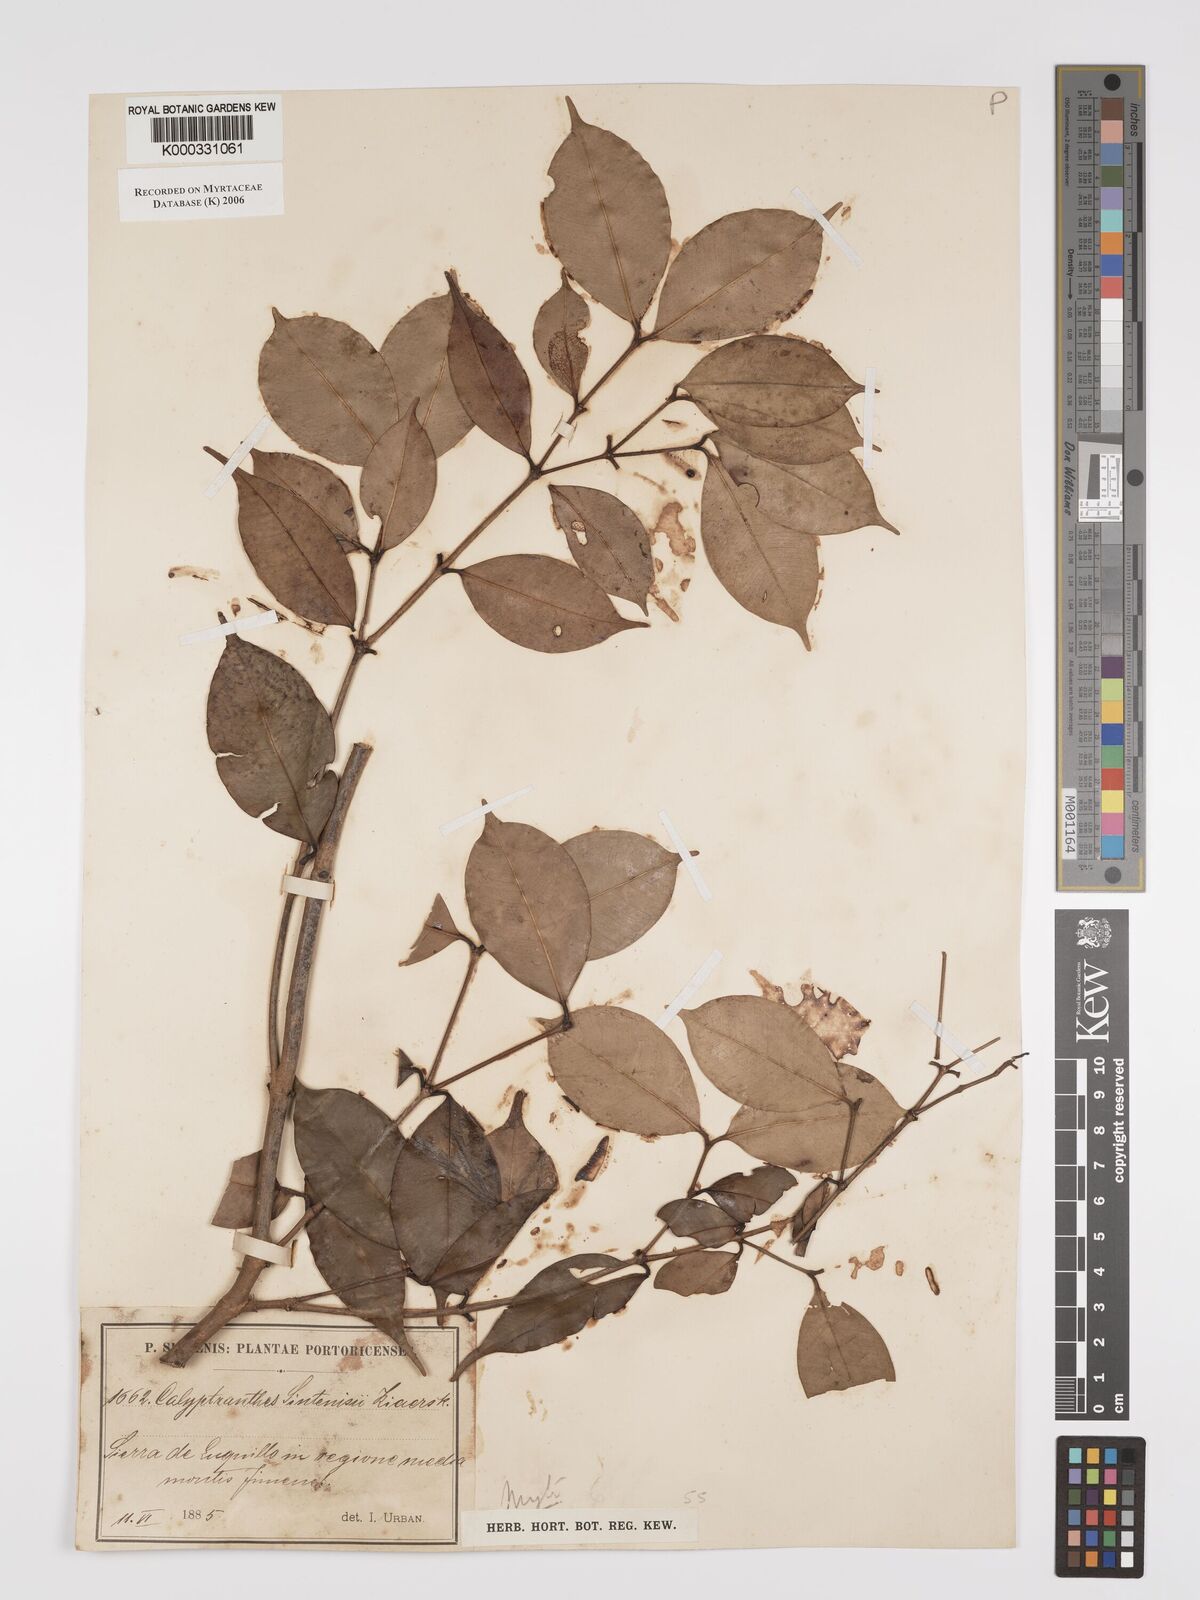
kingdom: Plantae
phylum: Tracheophyta
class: Magnoliopsida
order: Myrtales
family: Myrtaceae
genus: Myrcia
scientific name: Myrcia neosintenisii
